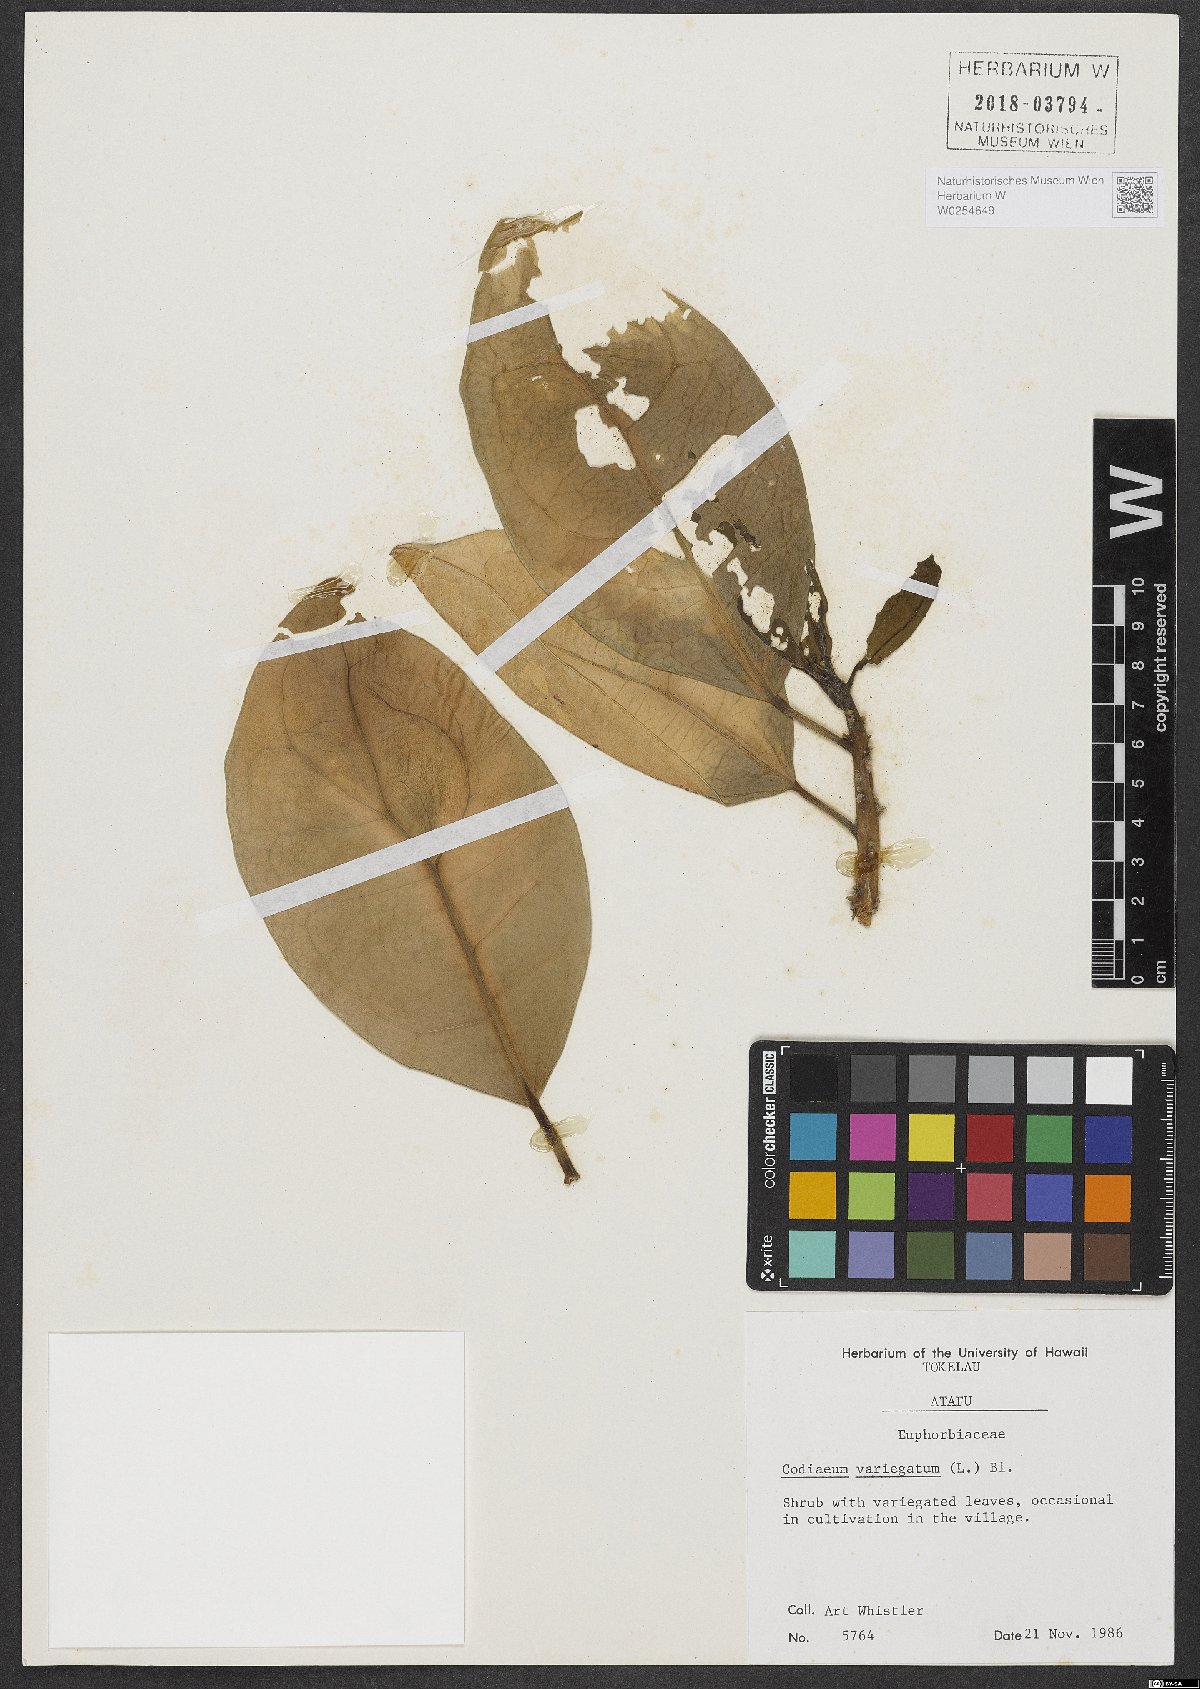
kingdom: Plantae
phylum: Tracheophyta
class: Magnoliopsida
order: Malpighiales
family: Euphorbiaceae
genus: Codiaeum
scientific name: Codiaeum variegatum
